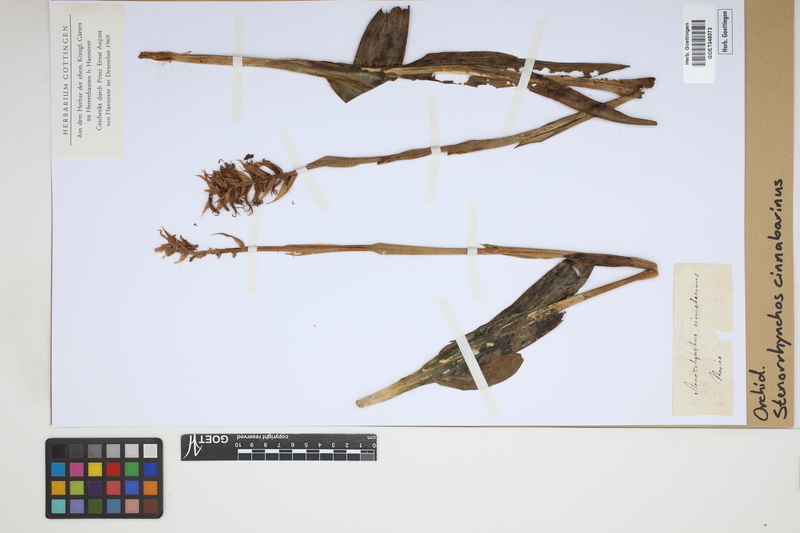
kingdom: Plantae
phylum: Tracheophyta
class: Liliopsida
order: Asparagales
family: Orchidaceae
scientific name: Orchidaceae
